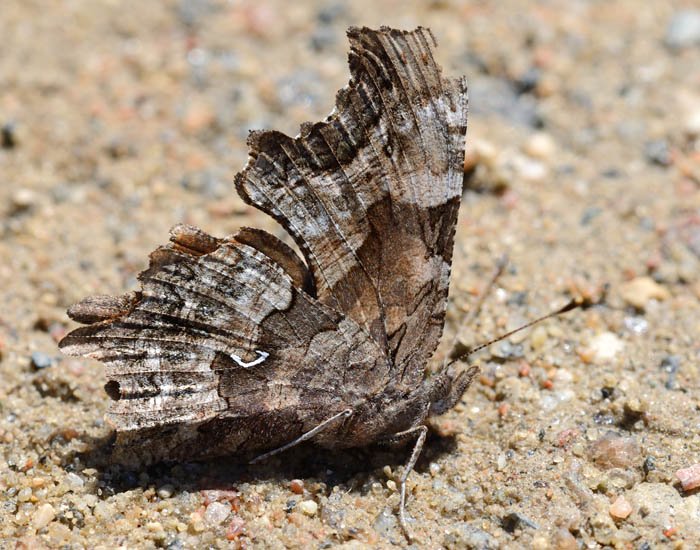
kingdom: Animalia
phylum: Arthropoda
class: Insecta
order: Lepidoptera
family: Nymphalidae
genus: Polygonia
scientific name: Polygonia faunus
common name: Green Comma
